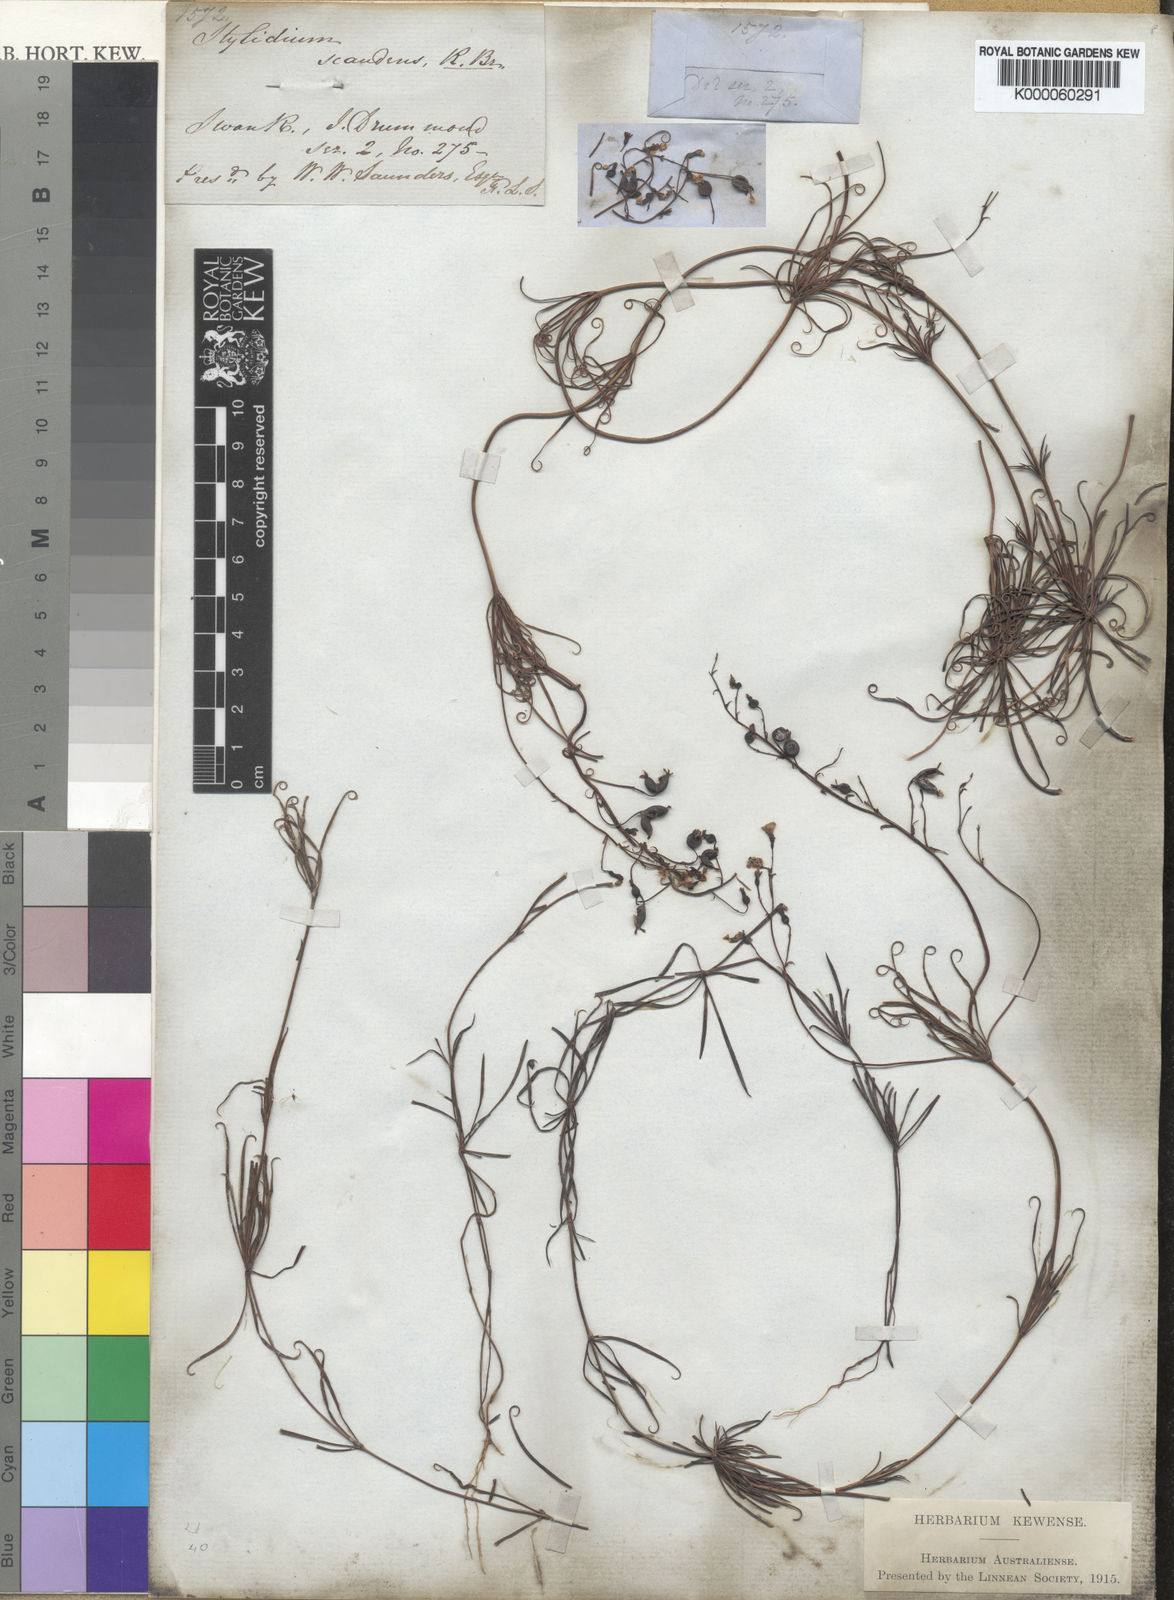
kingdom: Plantae
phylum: Tracheophyta
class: Magnoliopsida
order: Asterales
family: Stylidiaceae
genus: Stylidium
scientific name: Stylidium scandens
